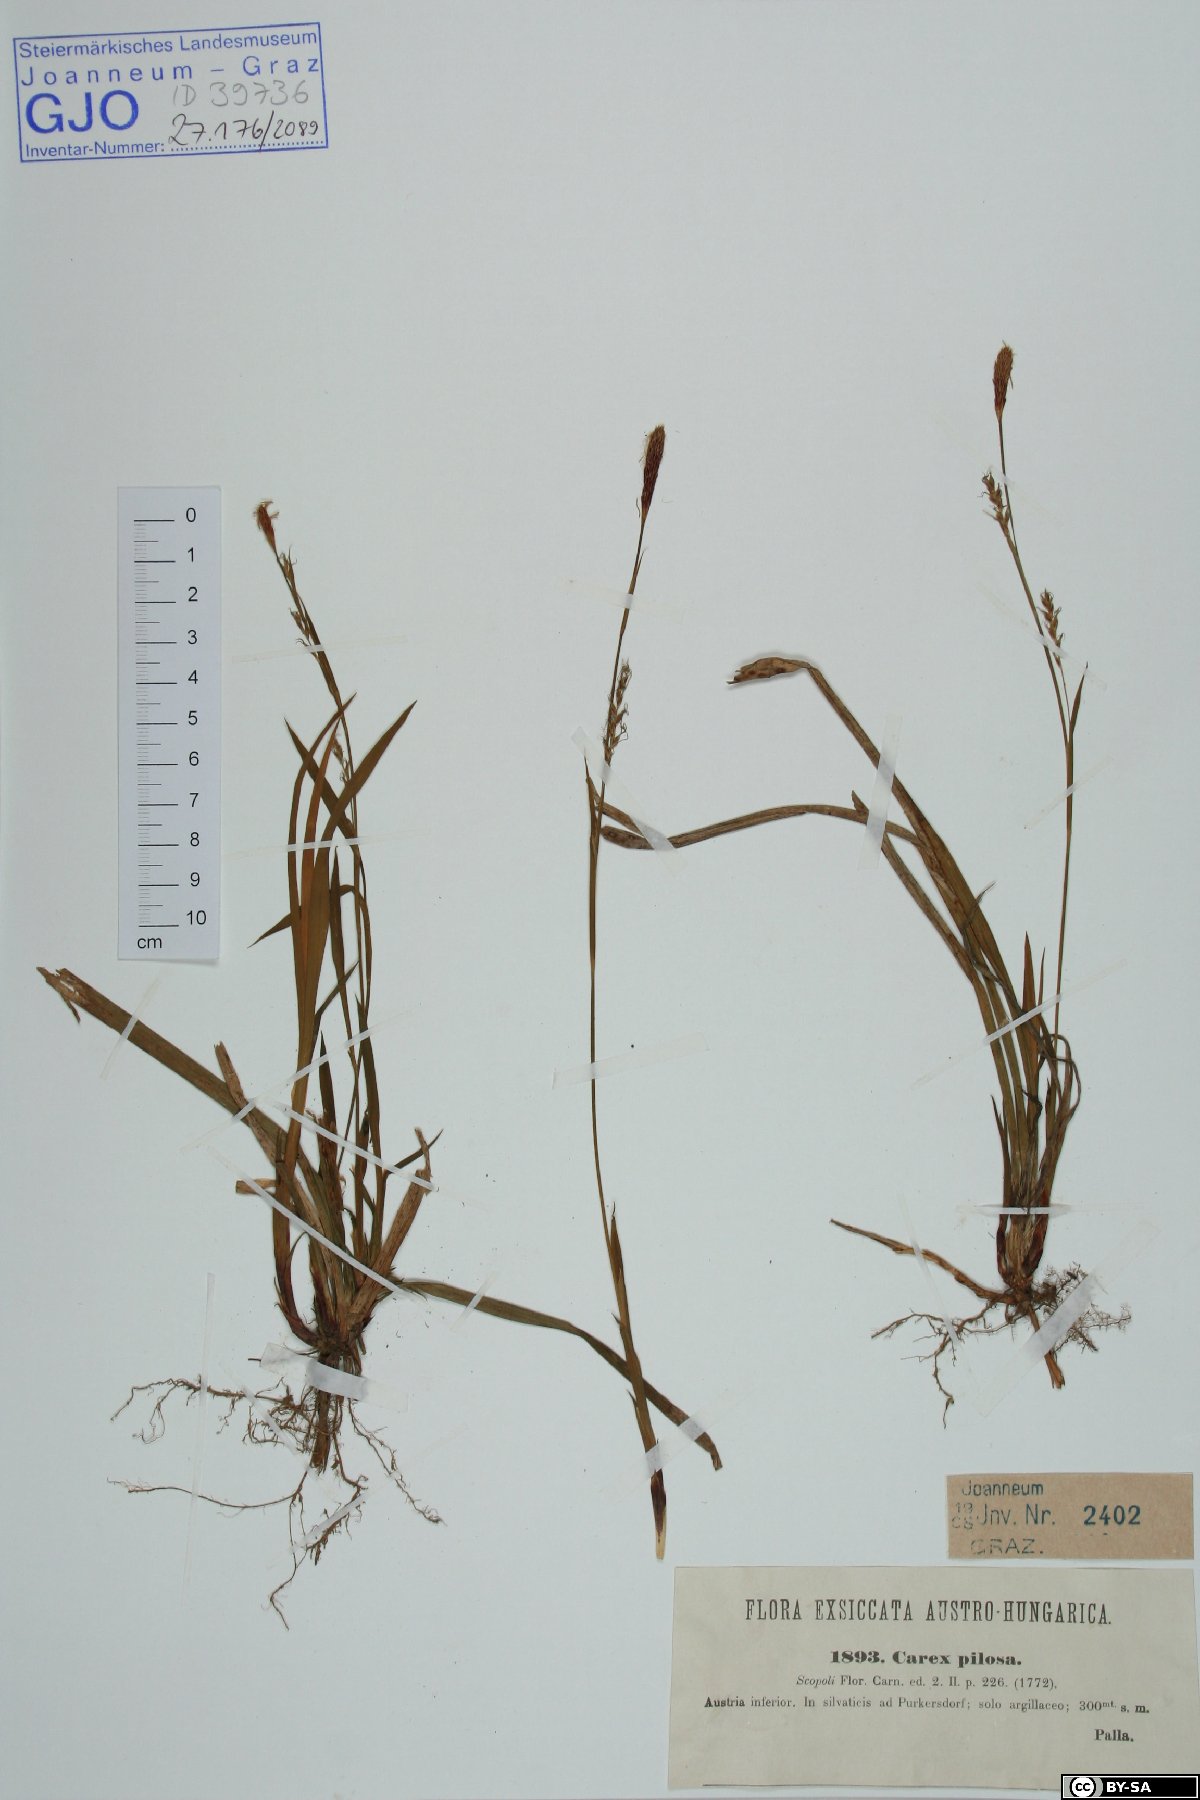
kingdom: Plantae
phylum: Tracheophyta
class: Liliopsida
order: Poales
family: Cyperaceae
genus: Carex
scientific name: Carex pilosa
